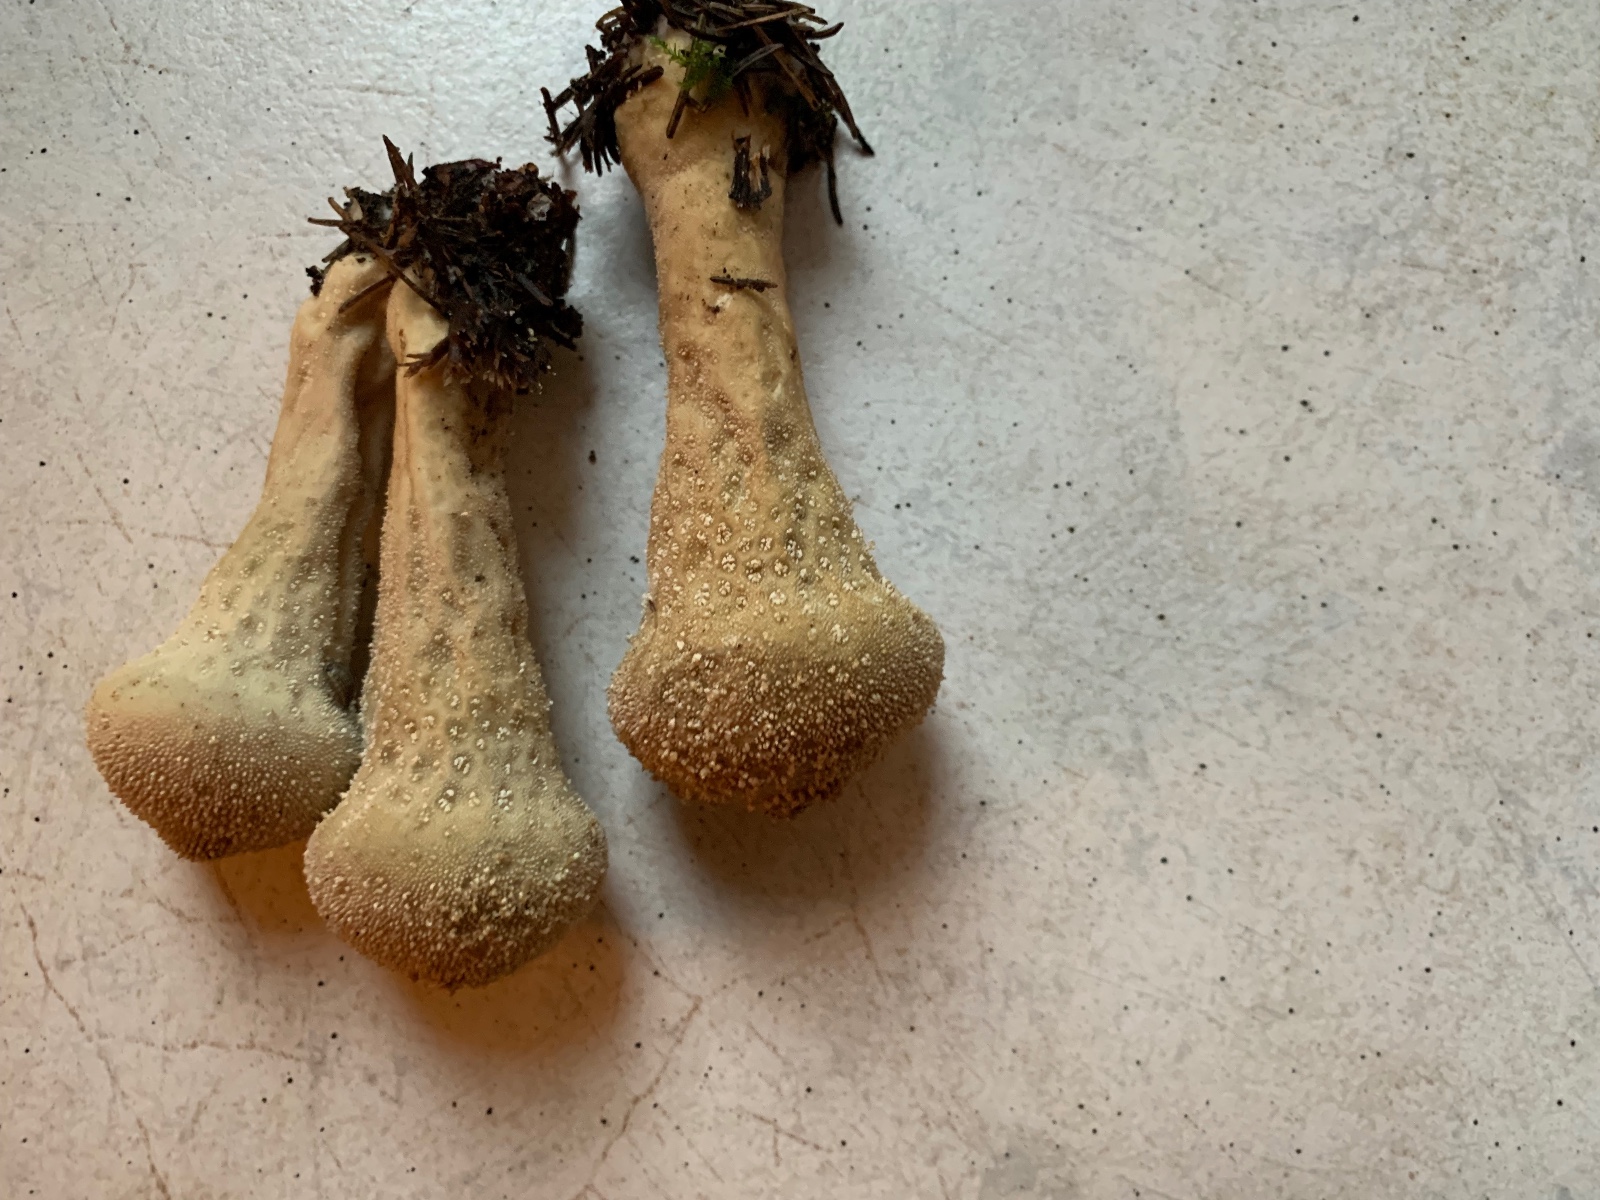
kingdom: Fungi
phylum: Basidiomycota
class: Agaricomycetes
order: Agaricales
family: Lycoperdaceae
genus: Lycoperdon
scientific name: Lycoperdon excipuliforme
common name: højstokket støvbold
